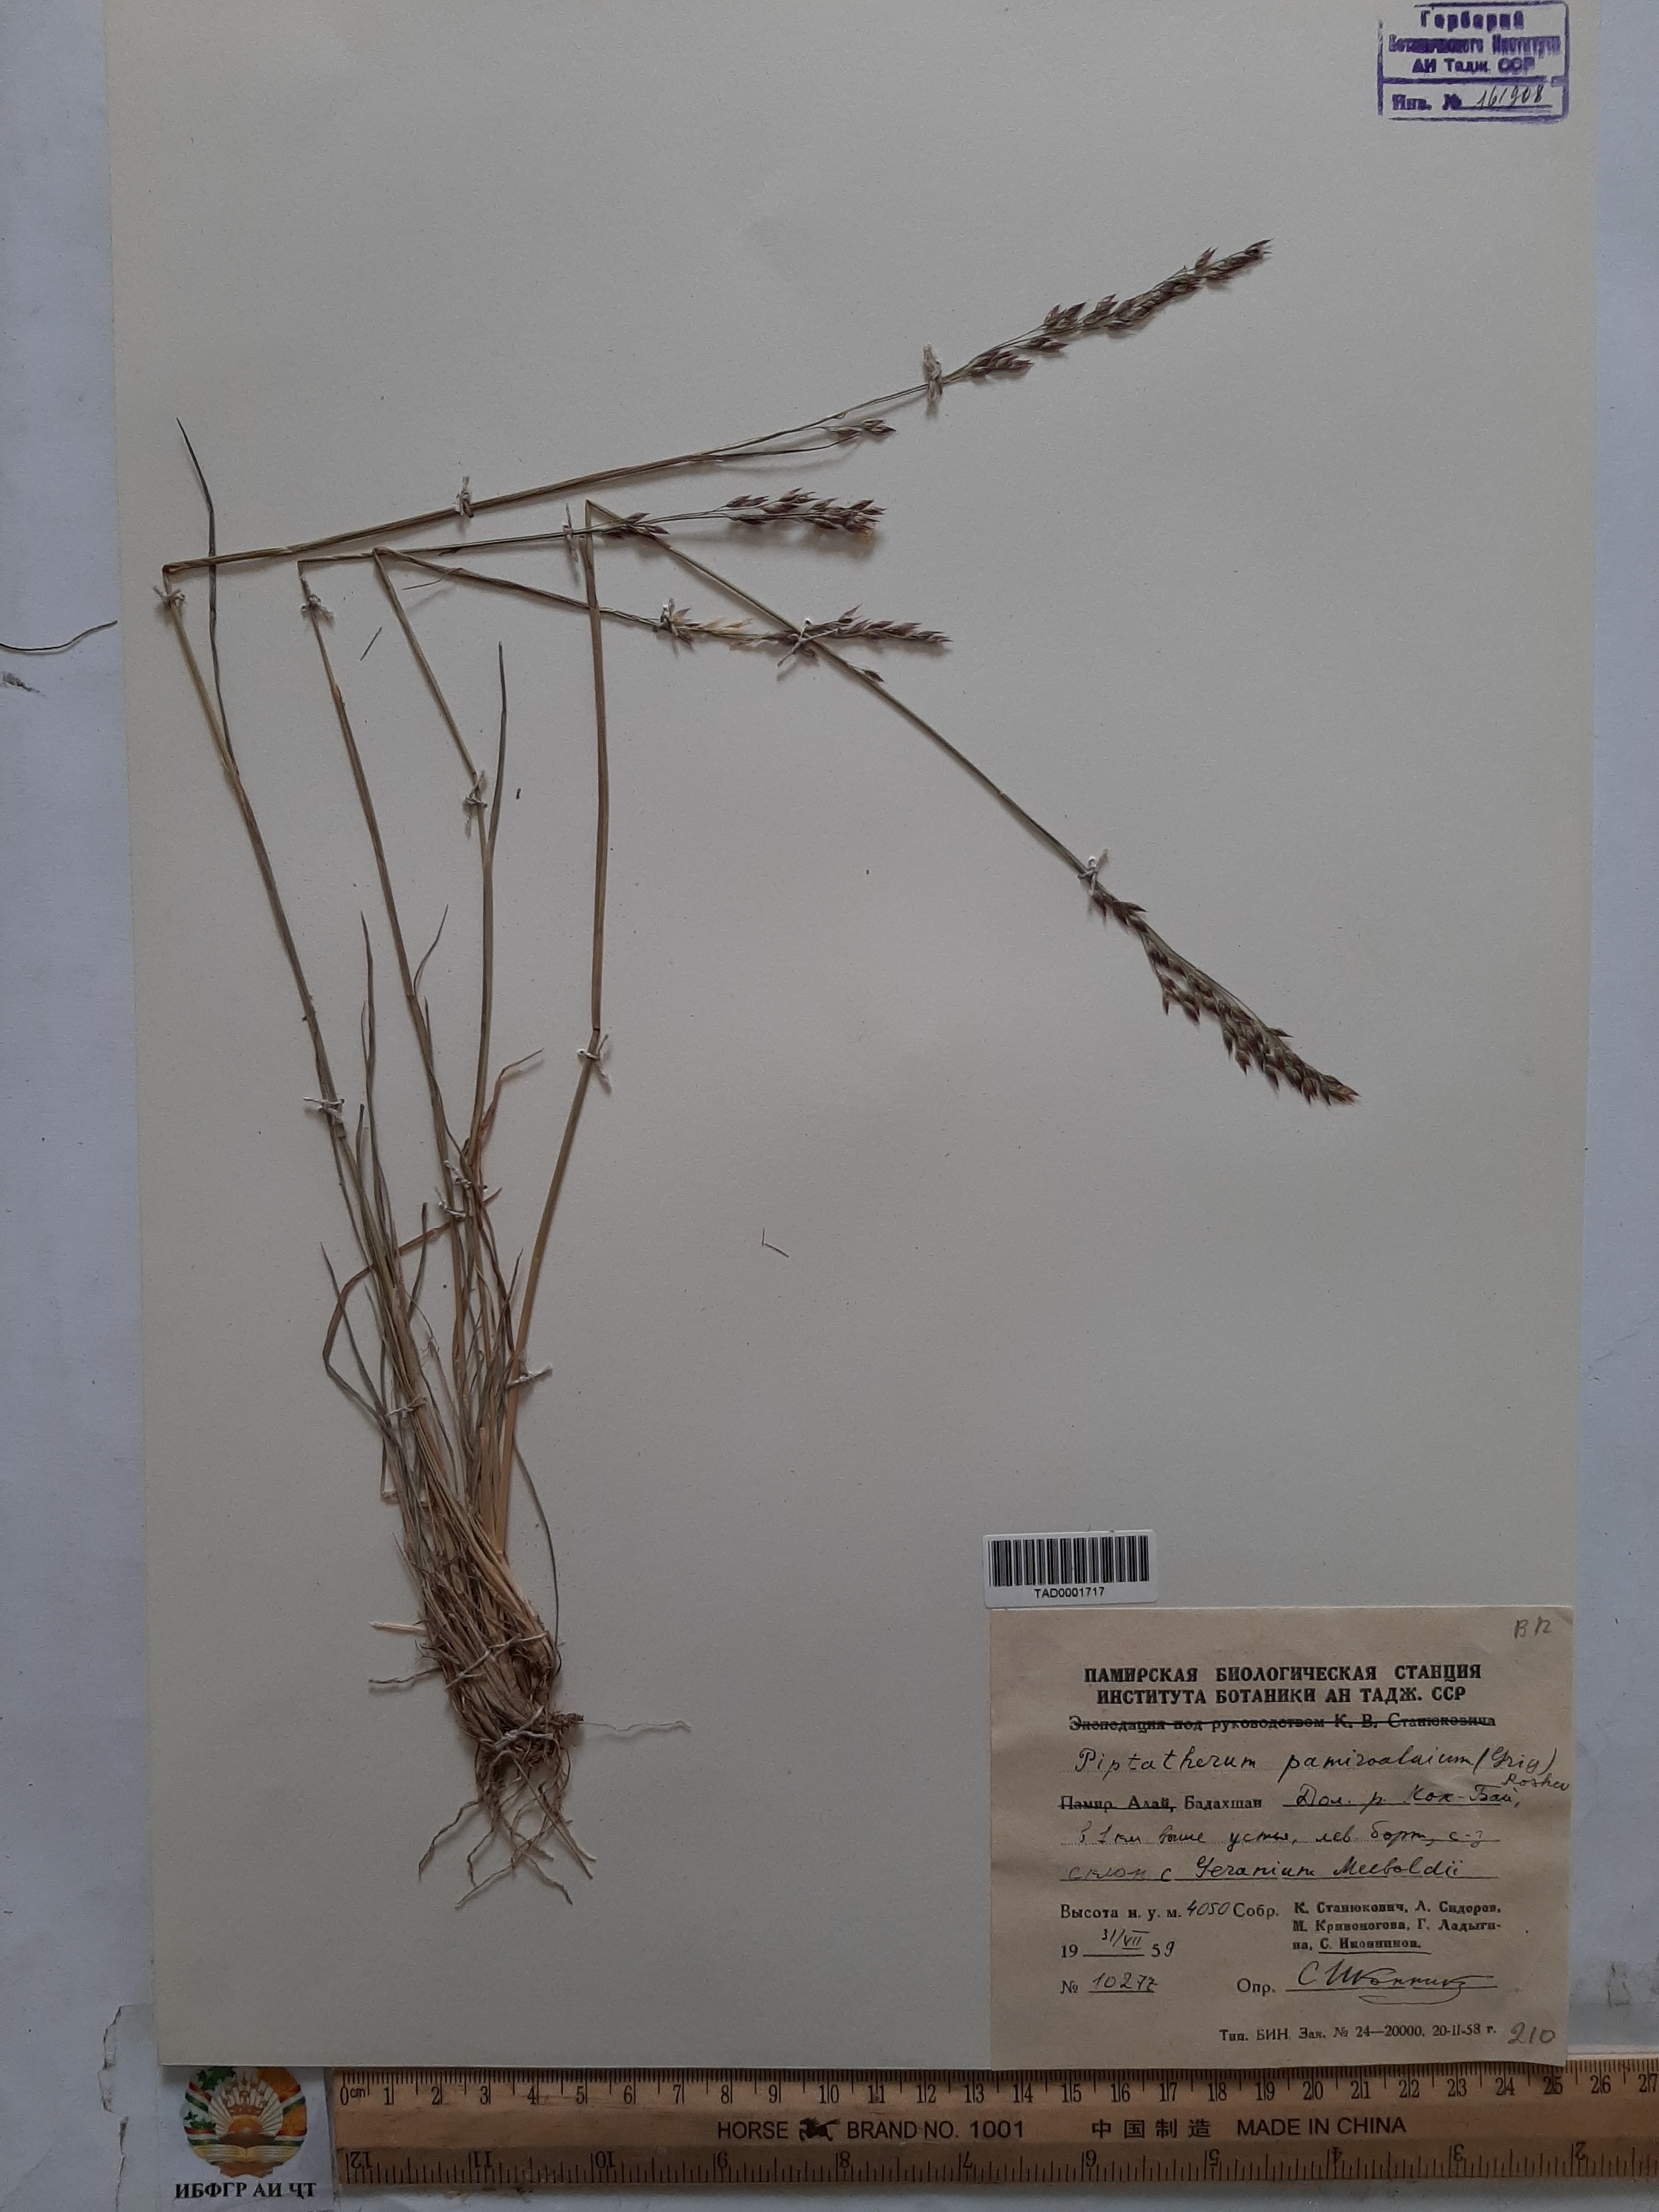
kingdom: Plantae
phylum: Tracheophyta
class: Liliopsida
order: Poales
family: Poaceae
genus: Piptatherum
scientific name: Piptatherum pamiralaicum
